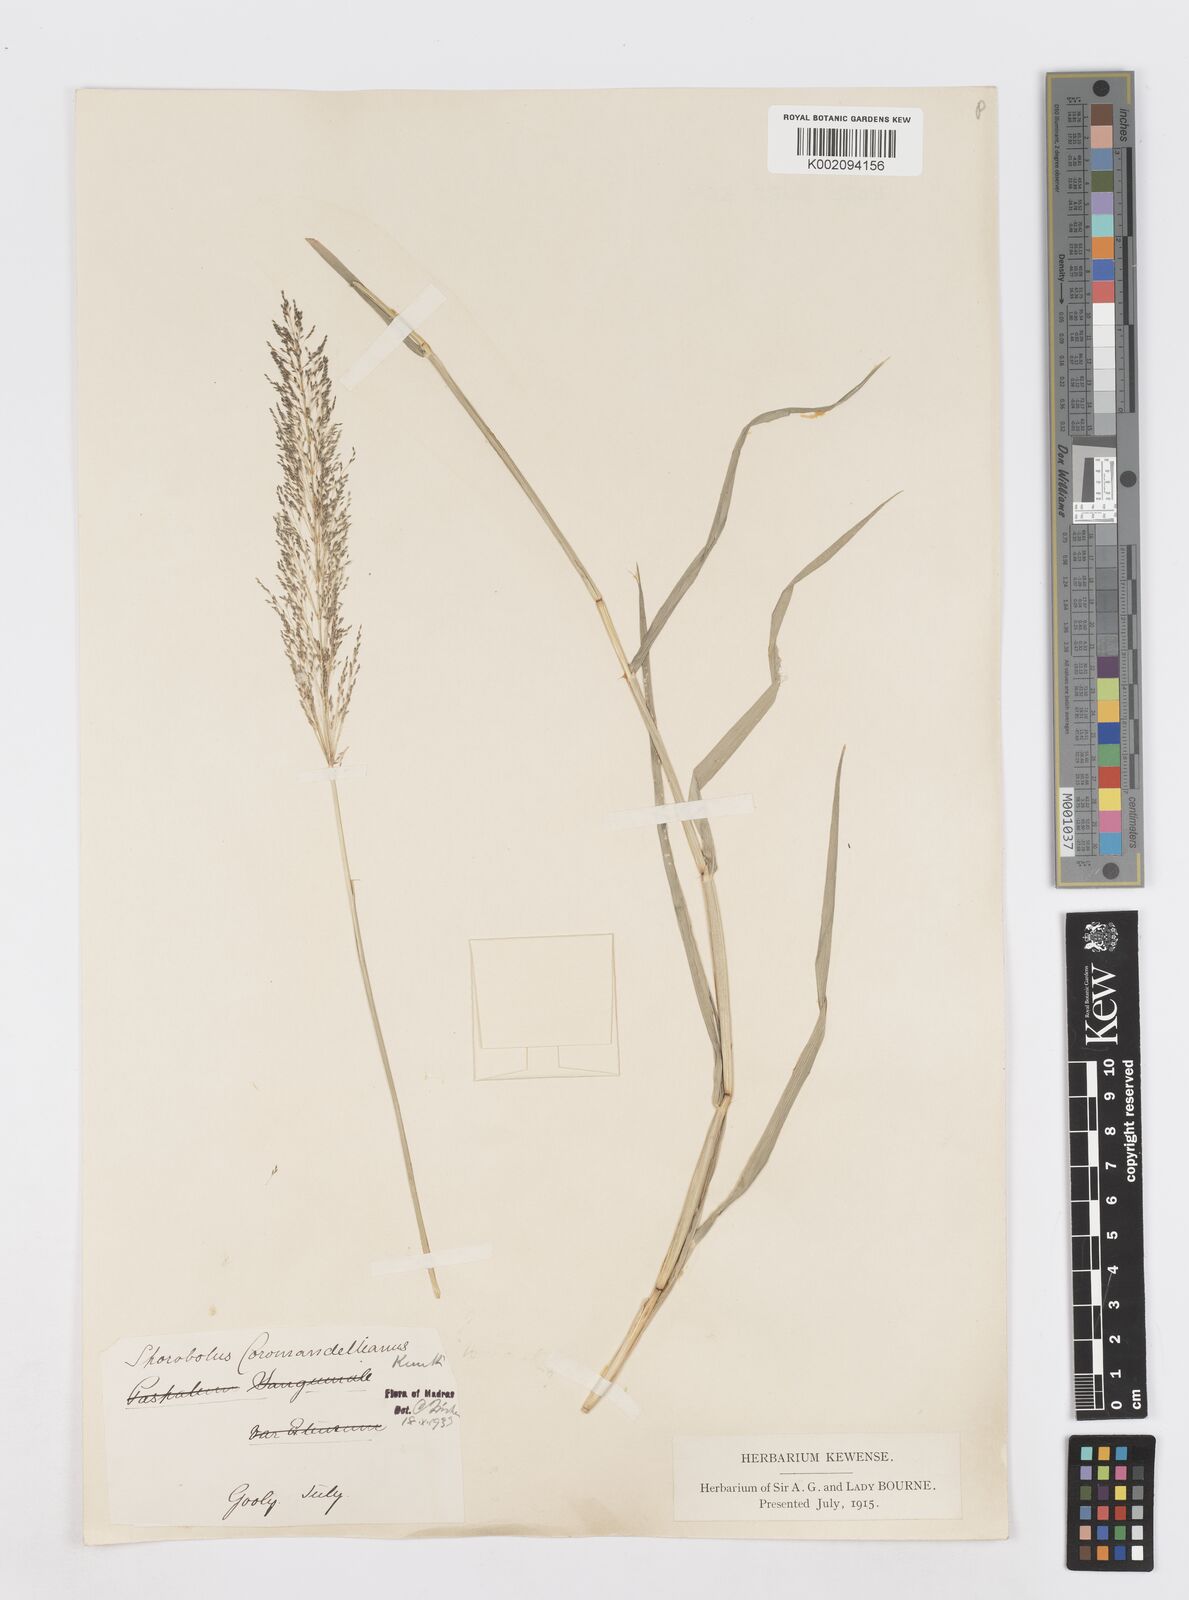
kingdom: Plantae
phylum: Tracheophyta
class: Liliopsida
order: Poales
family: Poaceae
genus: Sporobolus
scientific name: Sporobolus coromandelianus
